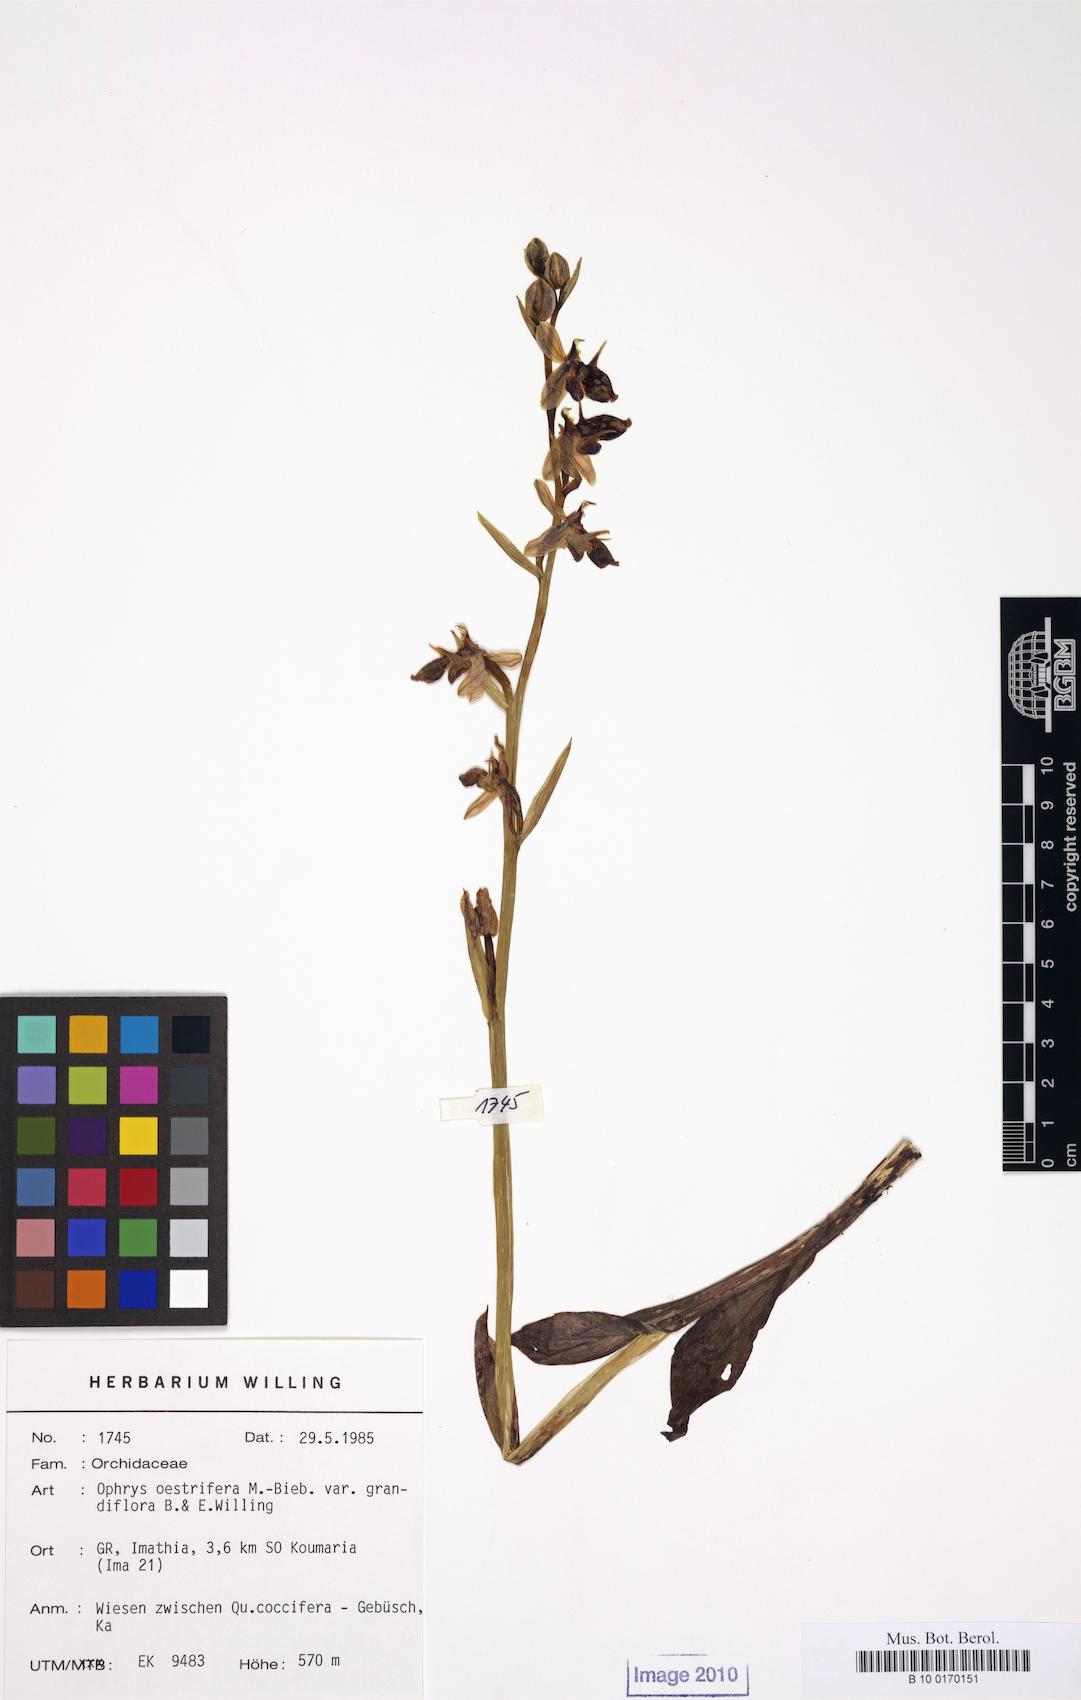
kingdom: Plantae
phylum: Tracheophyta
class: Liliopsida
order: Asparagales
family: Orchidaceae
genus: Ophrys
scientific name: Ophrys scolopax
